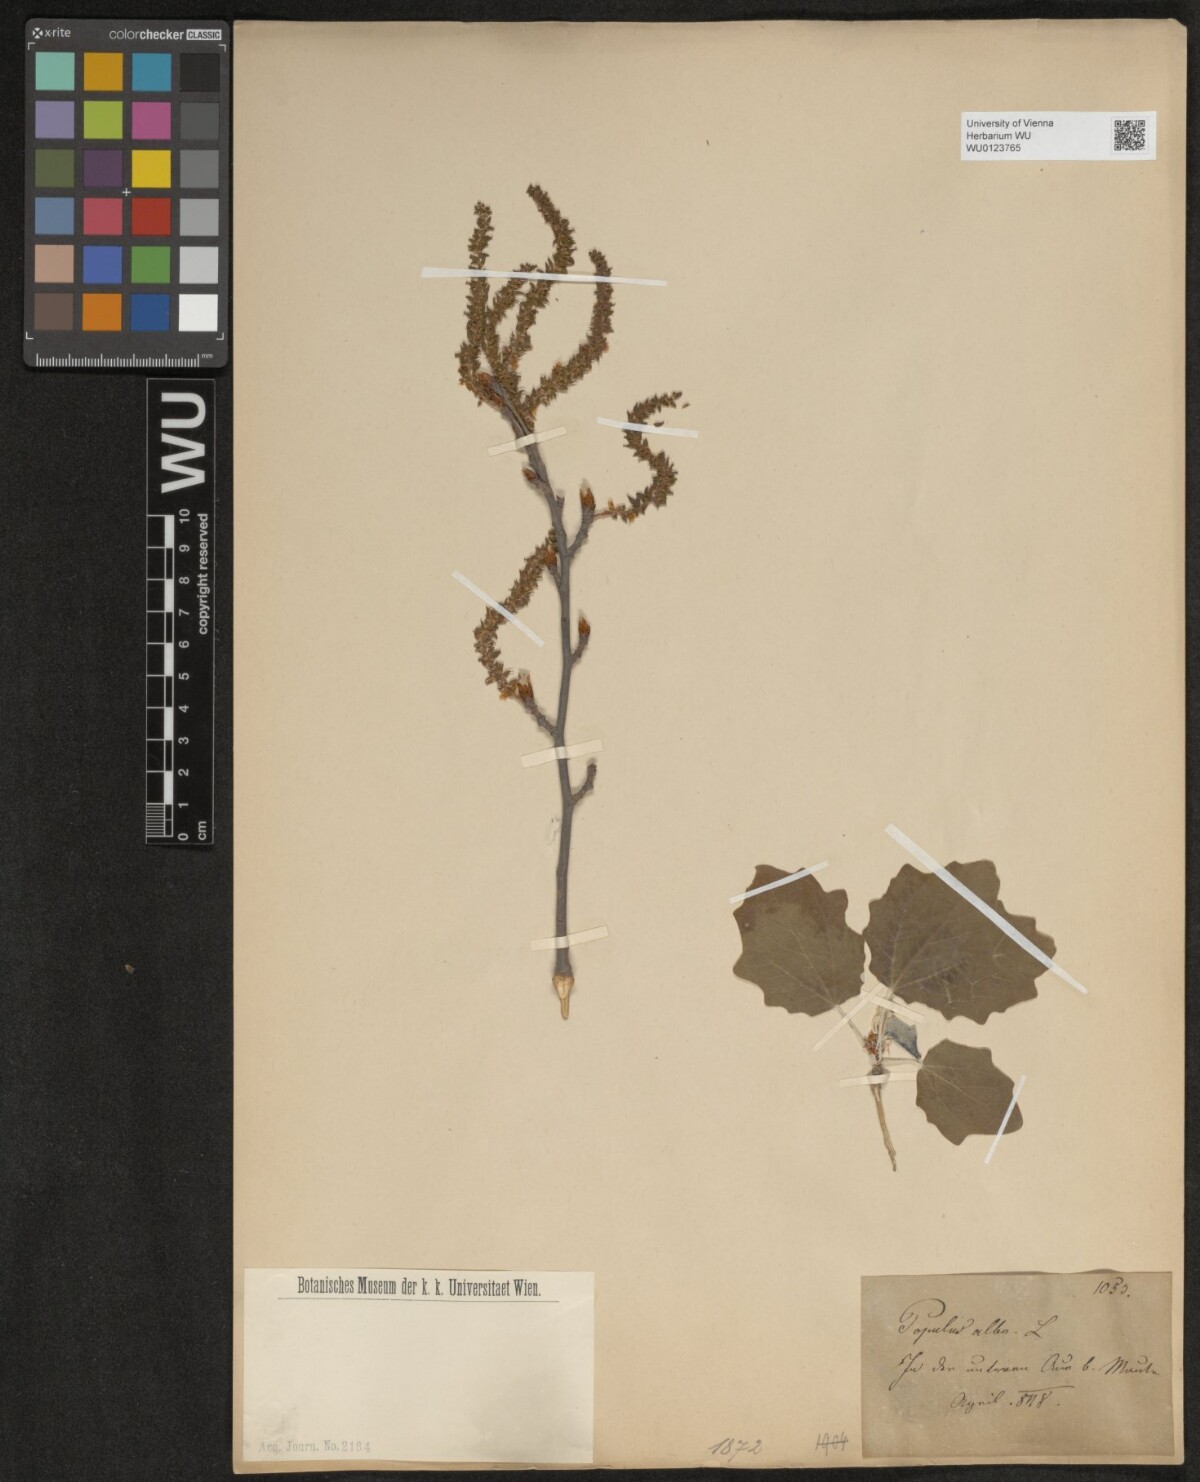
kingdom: Plantae
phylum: Tracheophyta
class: Magnoliopsida
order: Malpighiales
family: Salicaceae
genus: Populus
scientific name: Populus alba
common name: White poplar
